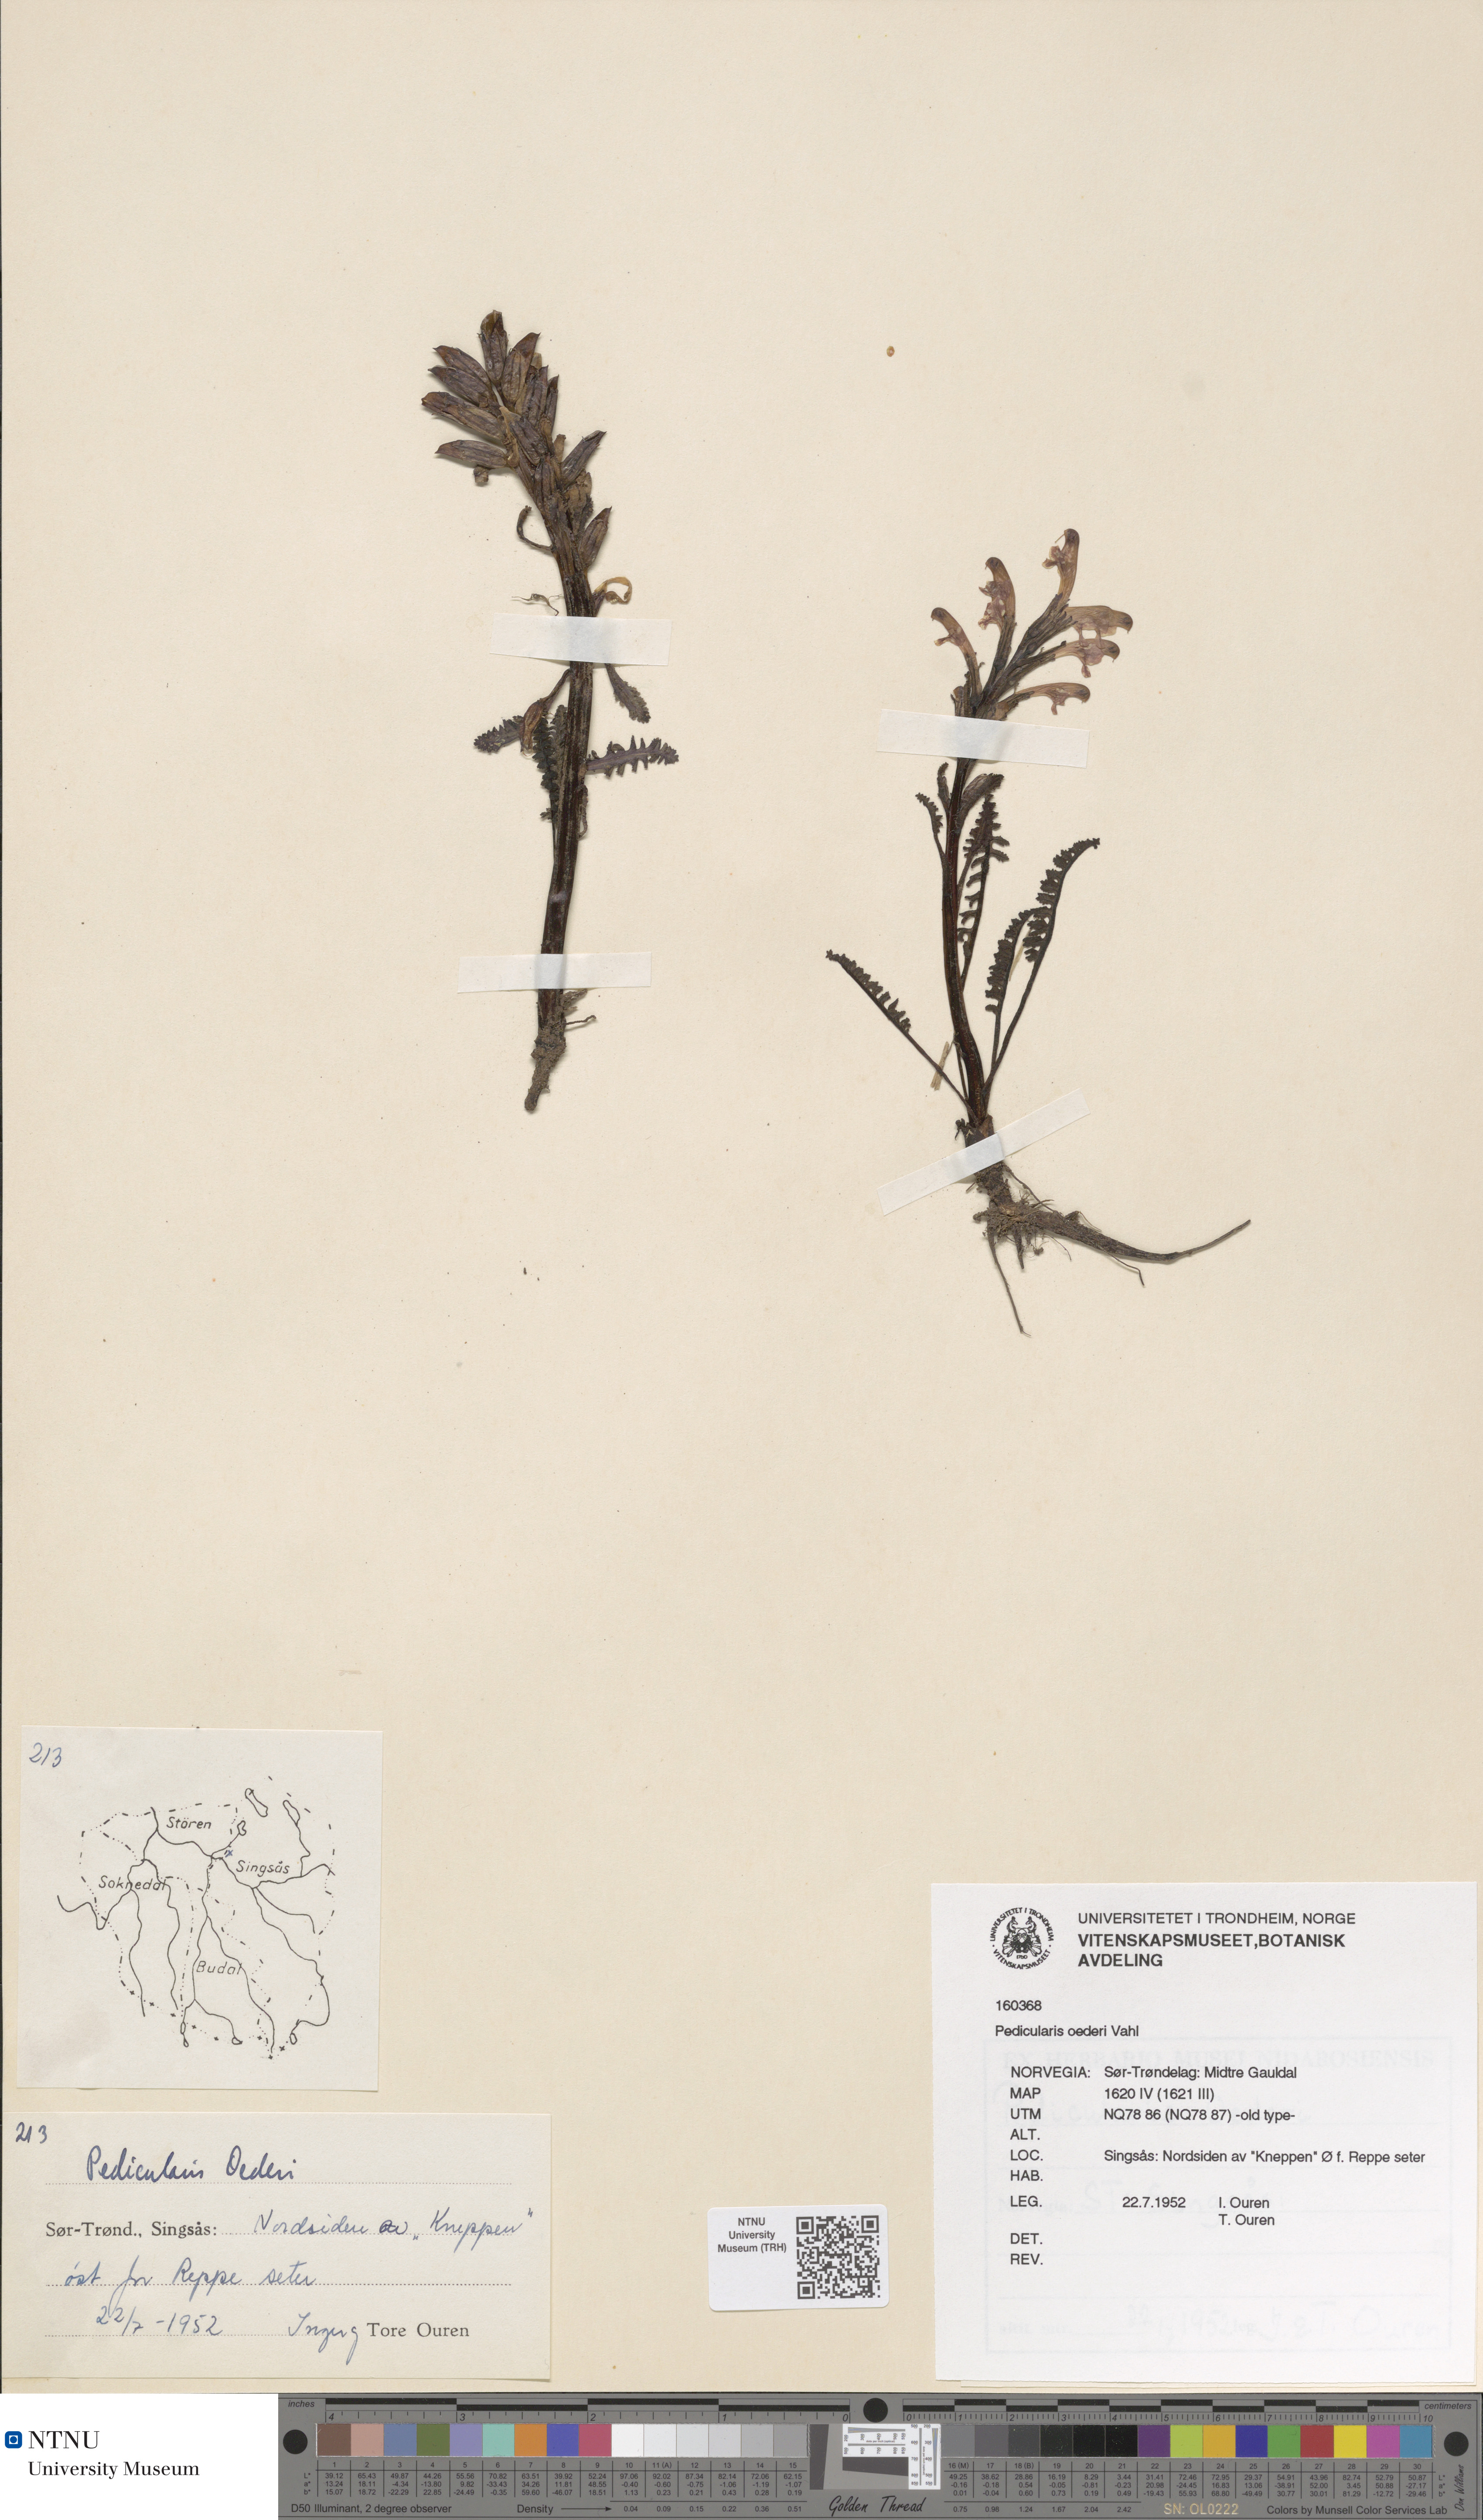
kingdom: Plantae
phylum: Tracheophyta
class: Magnoliopsida
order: Lamiales
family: Orobanchaceae
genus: Pedicularis
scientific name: Pedicularis oederi
